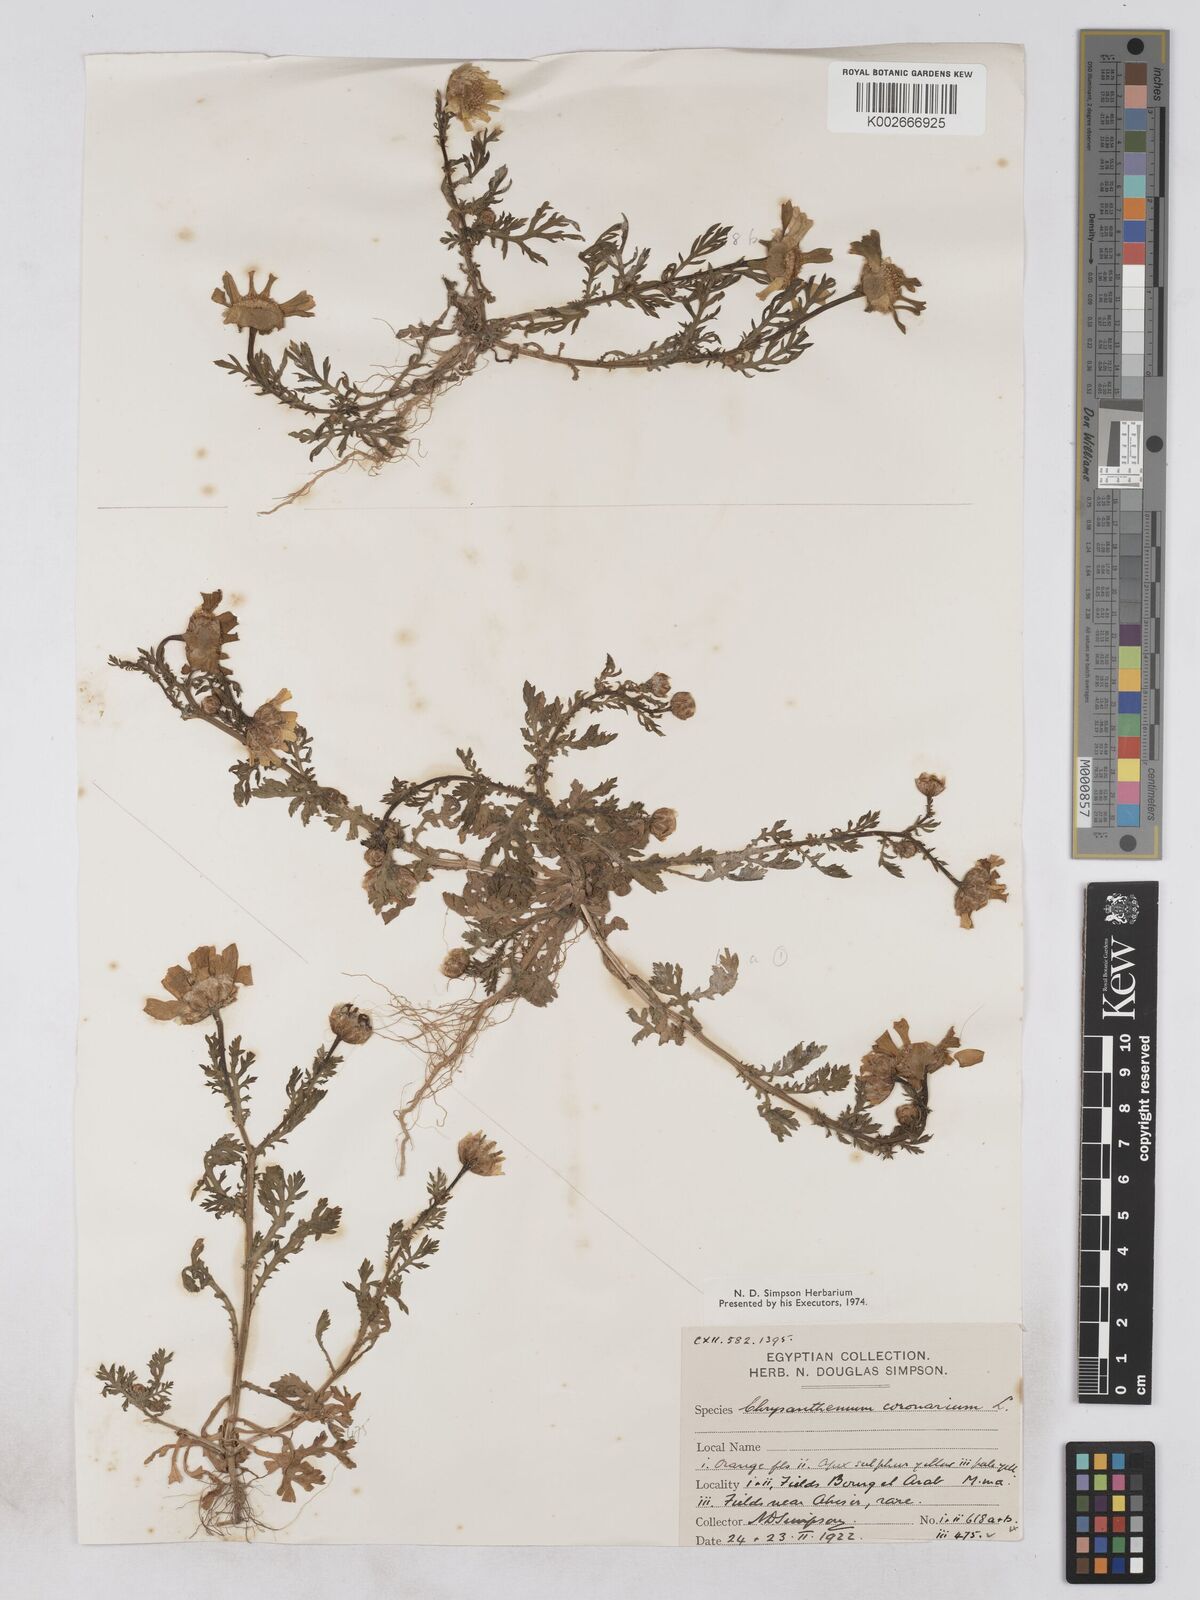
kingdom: Plantae
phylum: Tracheophyta
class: Magnoliopsida
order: Asterales
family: Asteraceae
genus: Glebionis
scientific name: Glebionis coronaria
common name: Crowndaisy
